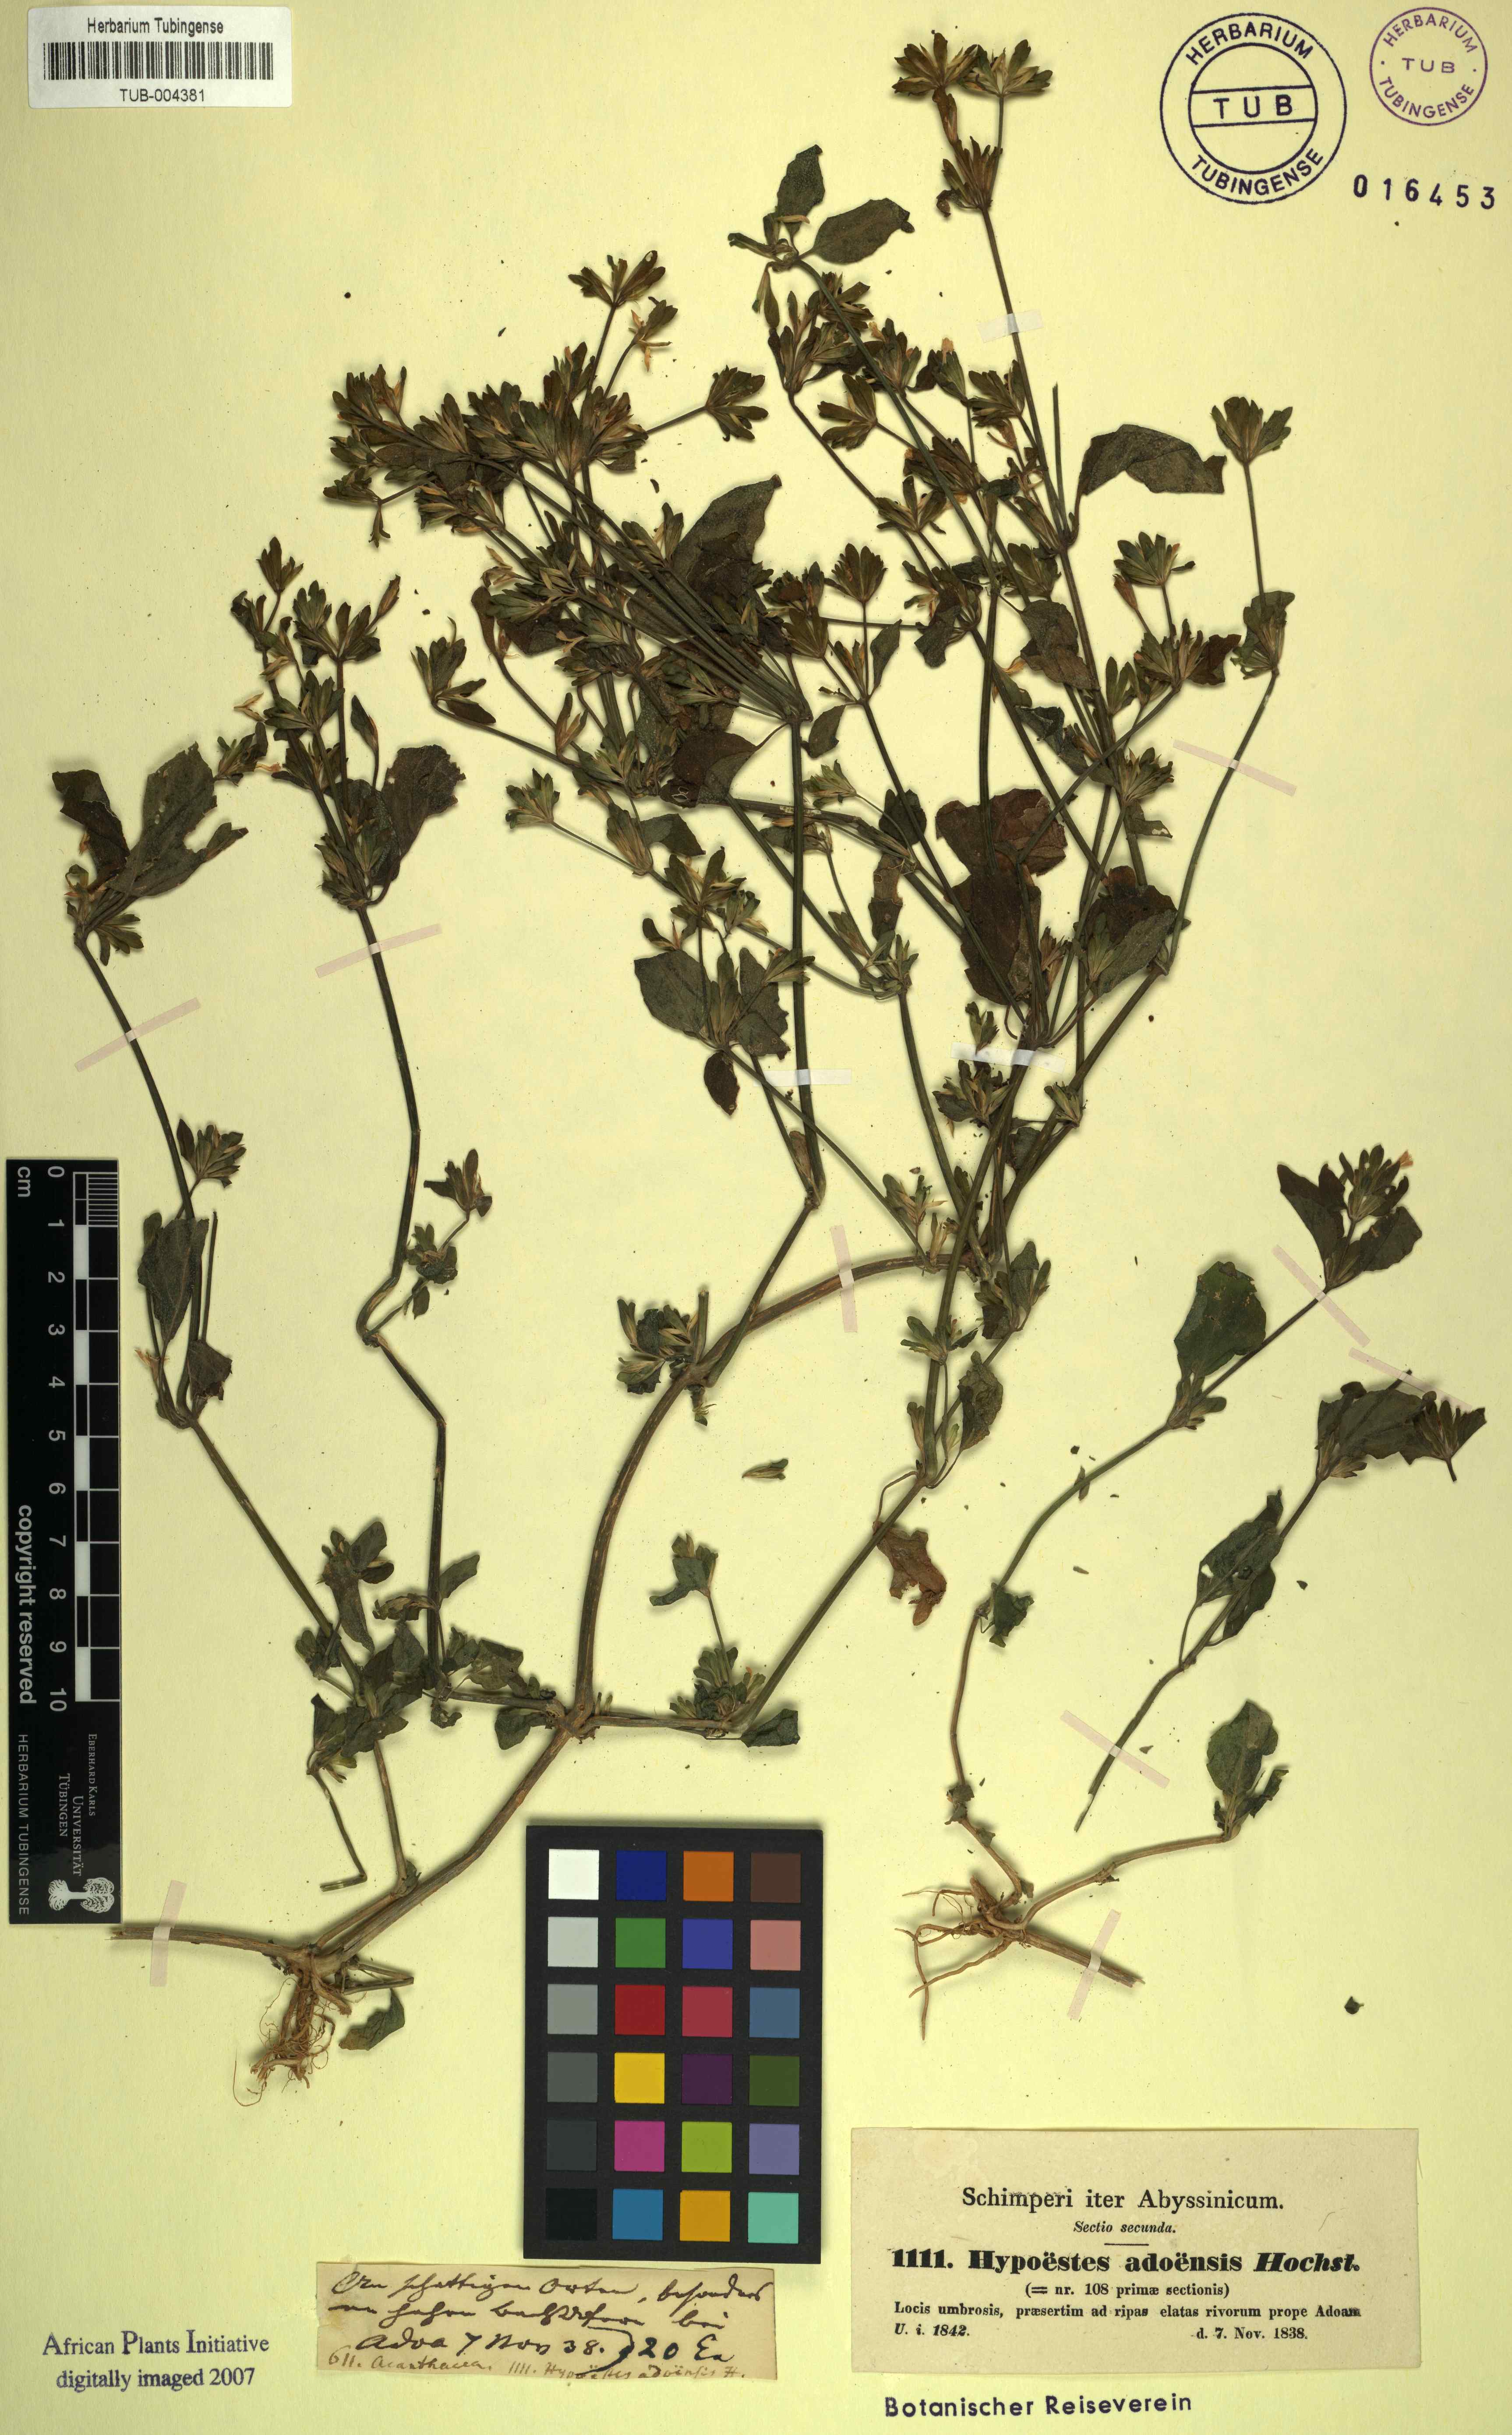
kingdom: Plantae
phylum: Tracheophyta
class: Magnoliopsida
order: Lamiales
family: Acanthaceae
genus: Hypoestes
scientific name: Hypoestes triflora
